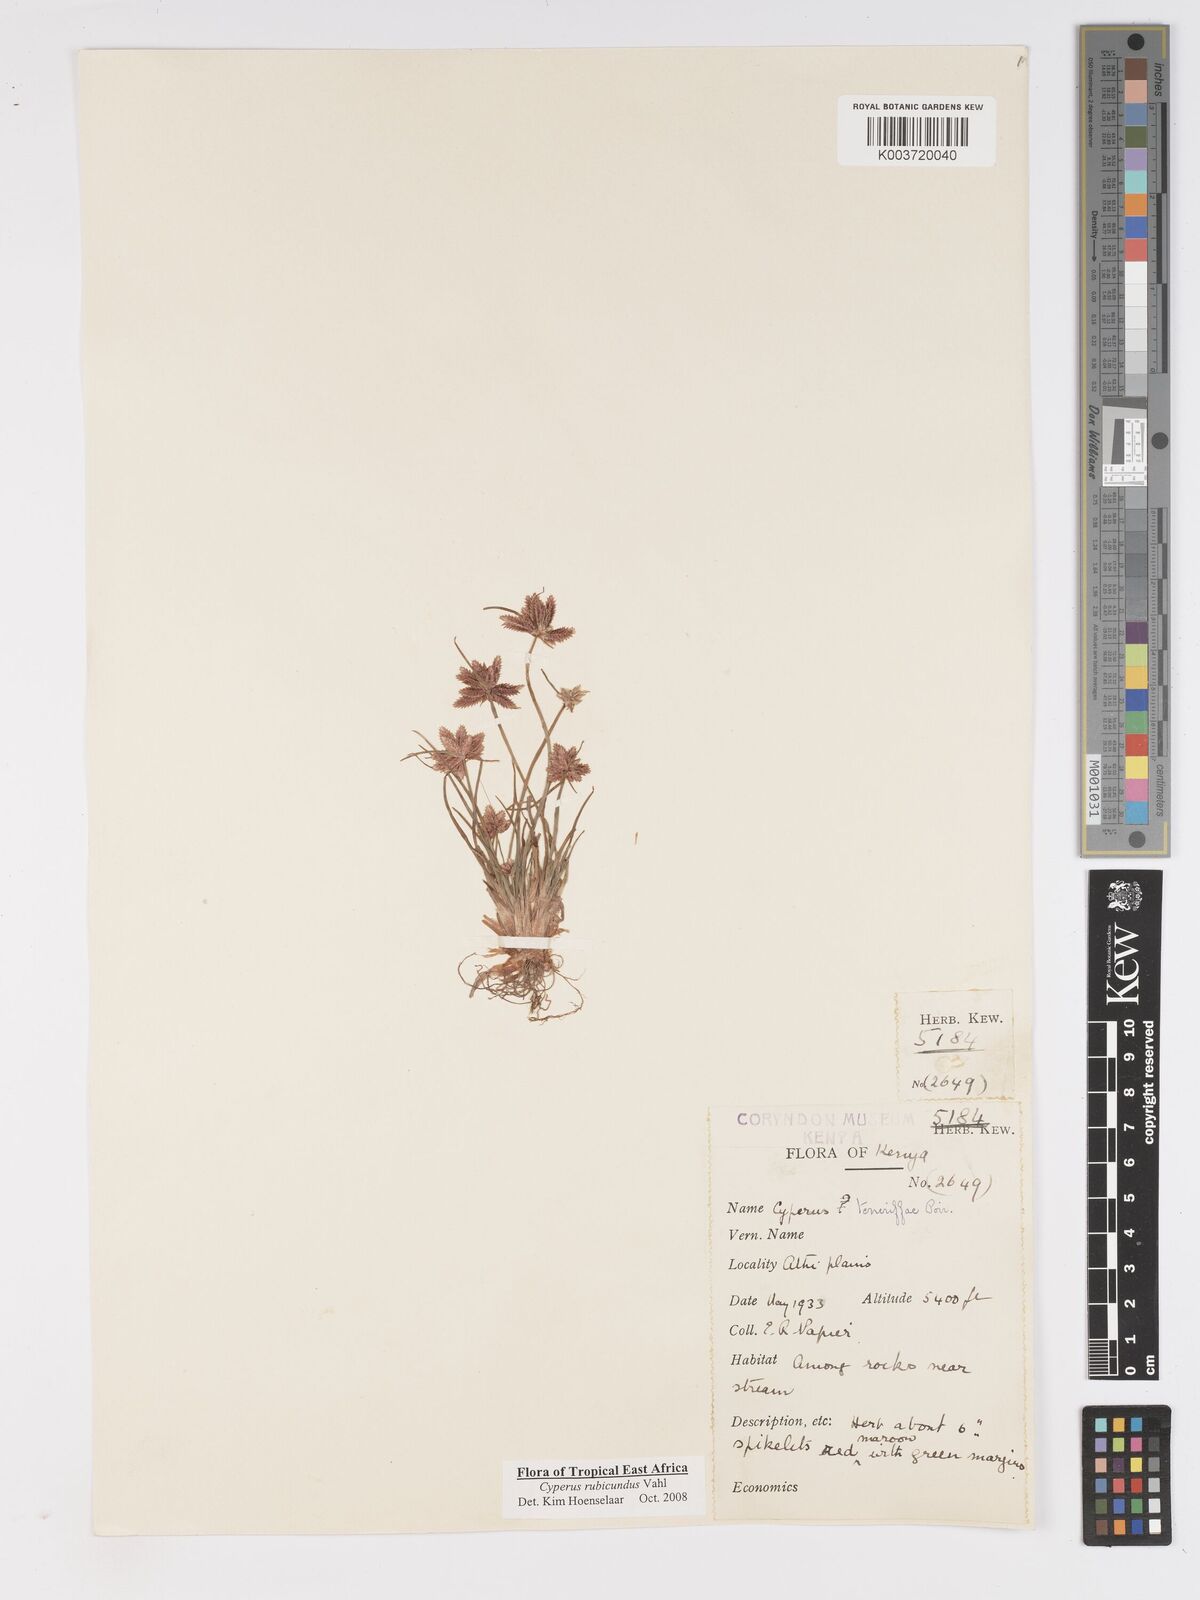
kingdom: Plantae
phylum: Tracheophyta
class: Liliopsida
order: Poales
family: Cyperaceae
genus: Cyperus
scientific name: Cyperus rubicundus
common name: Coco-grass
